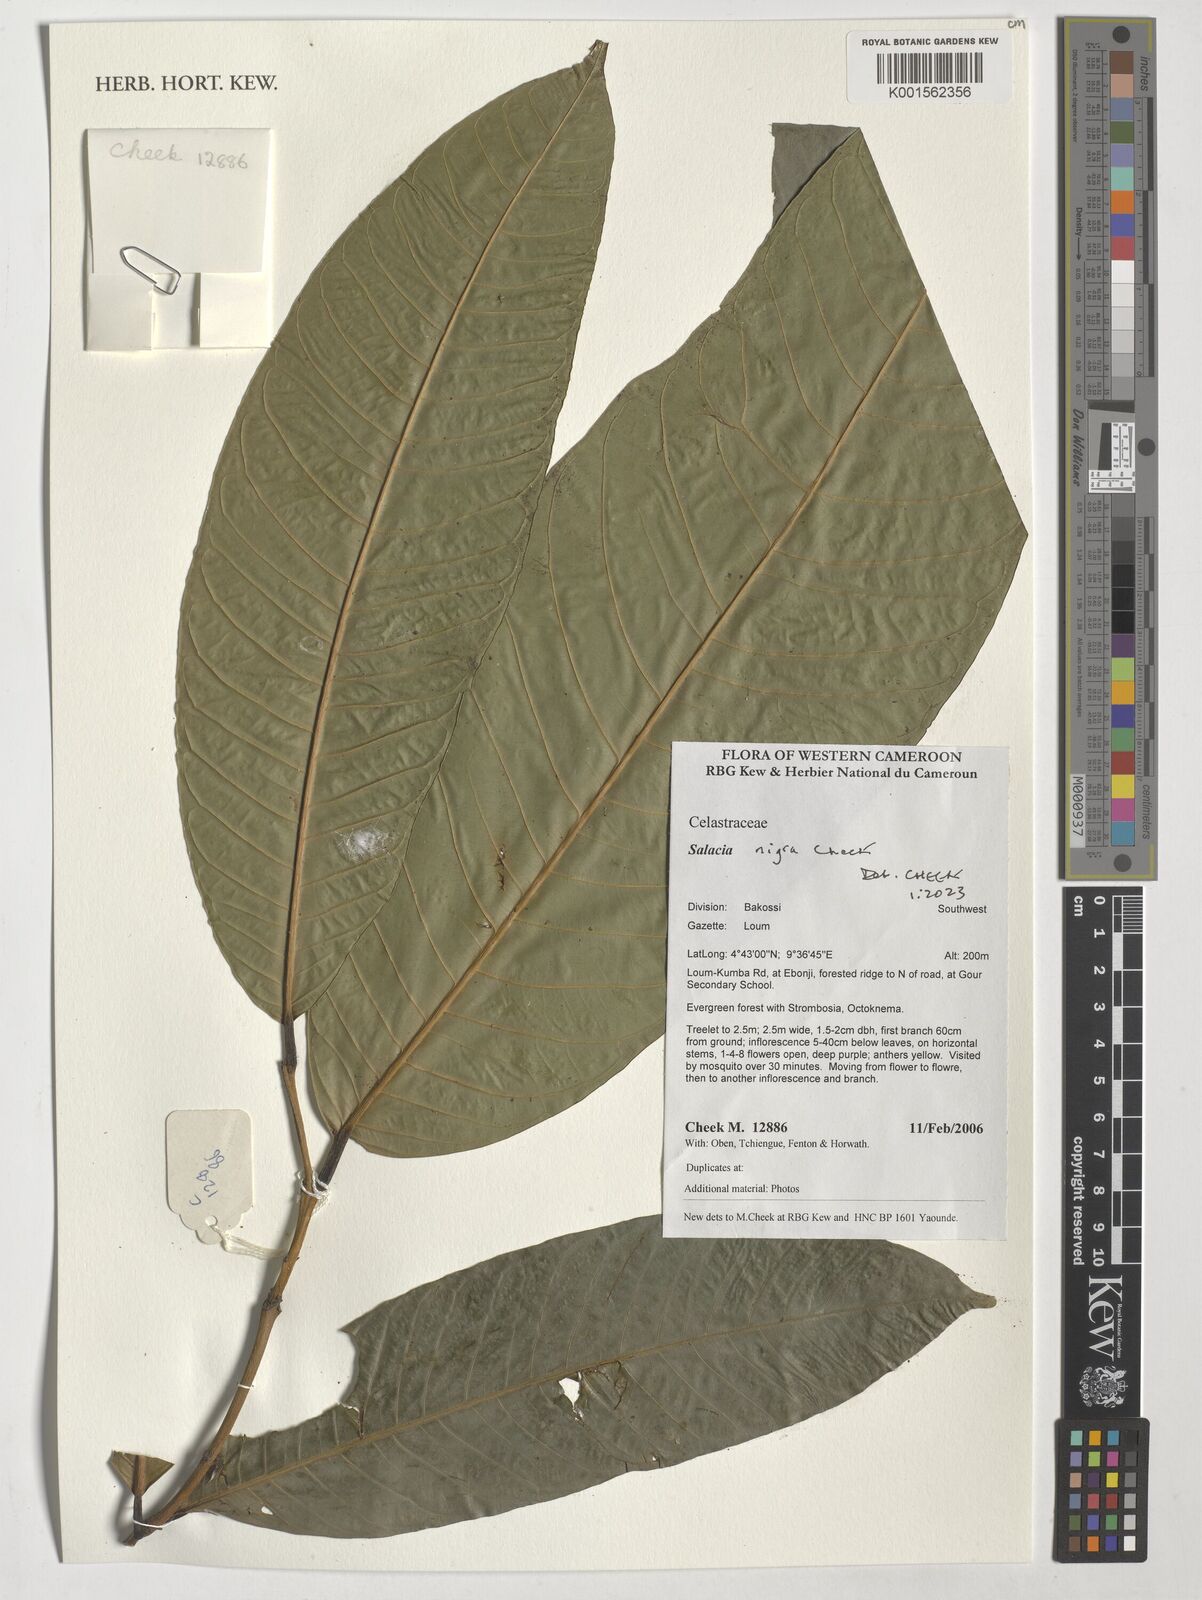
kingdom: Plantae
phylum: Tracheophyta
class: Magnoliopsida
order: Celastrales
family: Celastraceae
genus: Salacia
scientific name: Salacia nigra
